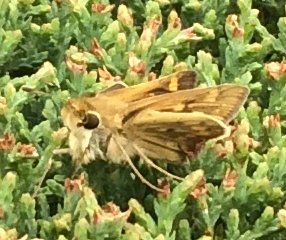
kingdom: Animalia
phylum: Arthropoda
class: Insecta
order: Lepidoptera
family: Hesperiidae
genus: Hylephila
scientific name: Hylephila phyleus
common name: Fiery Skipper
